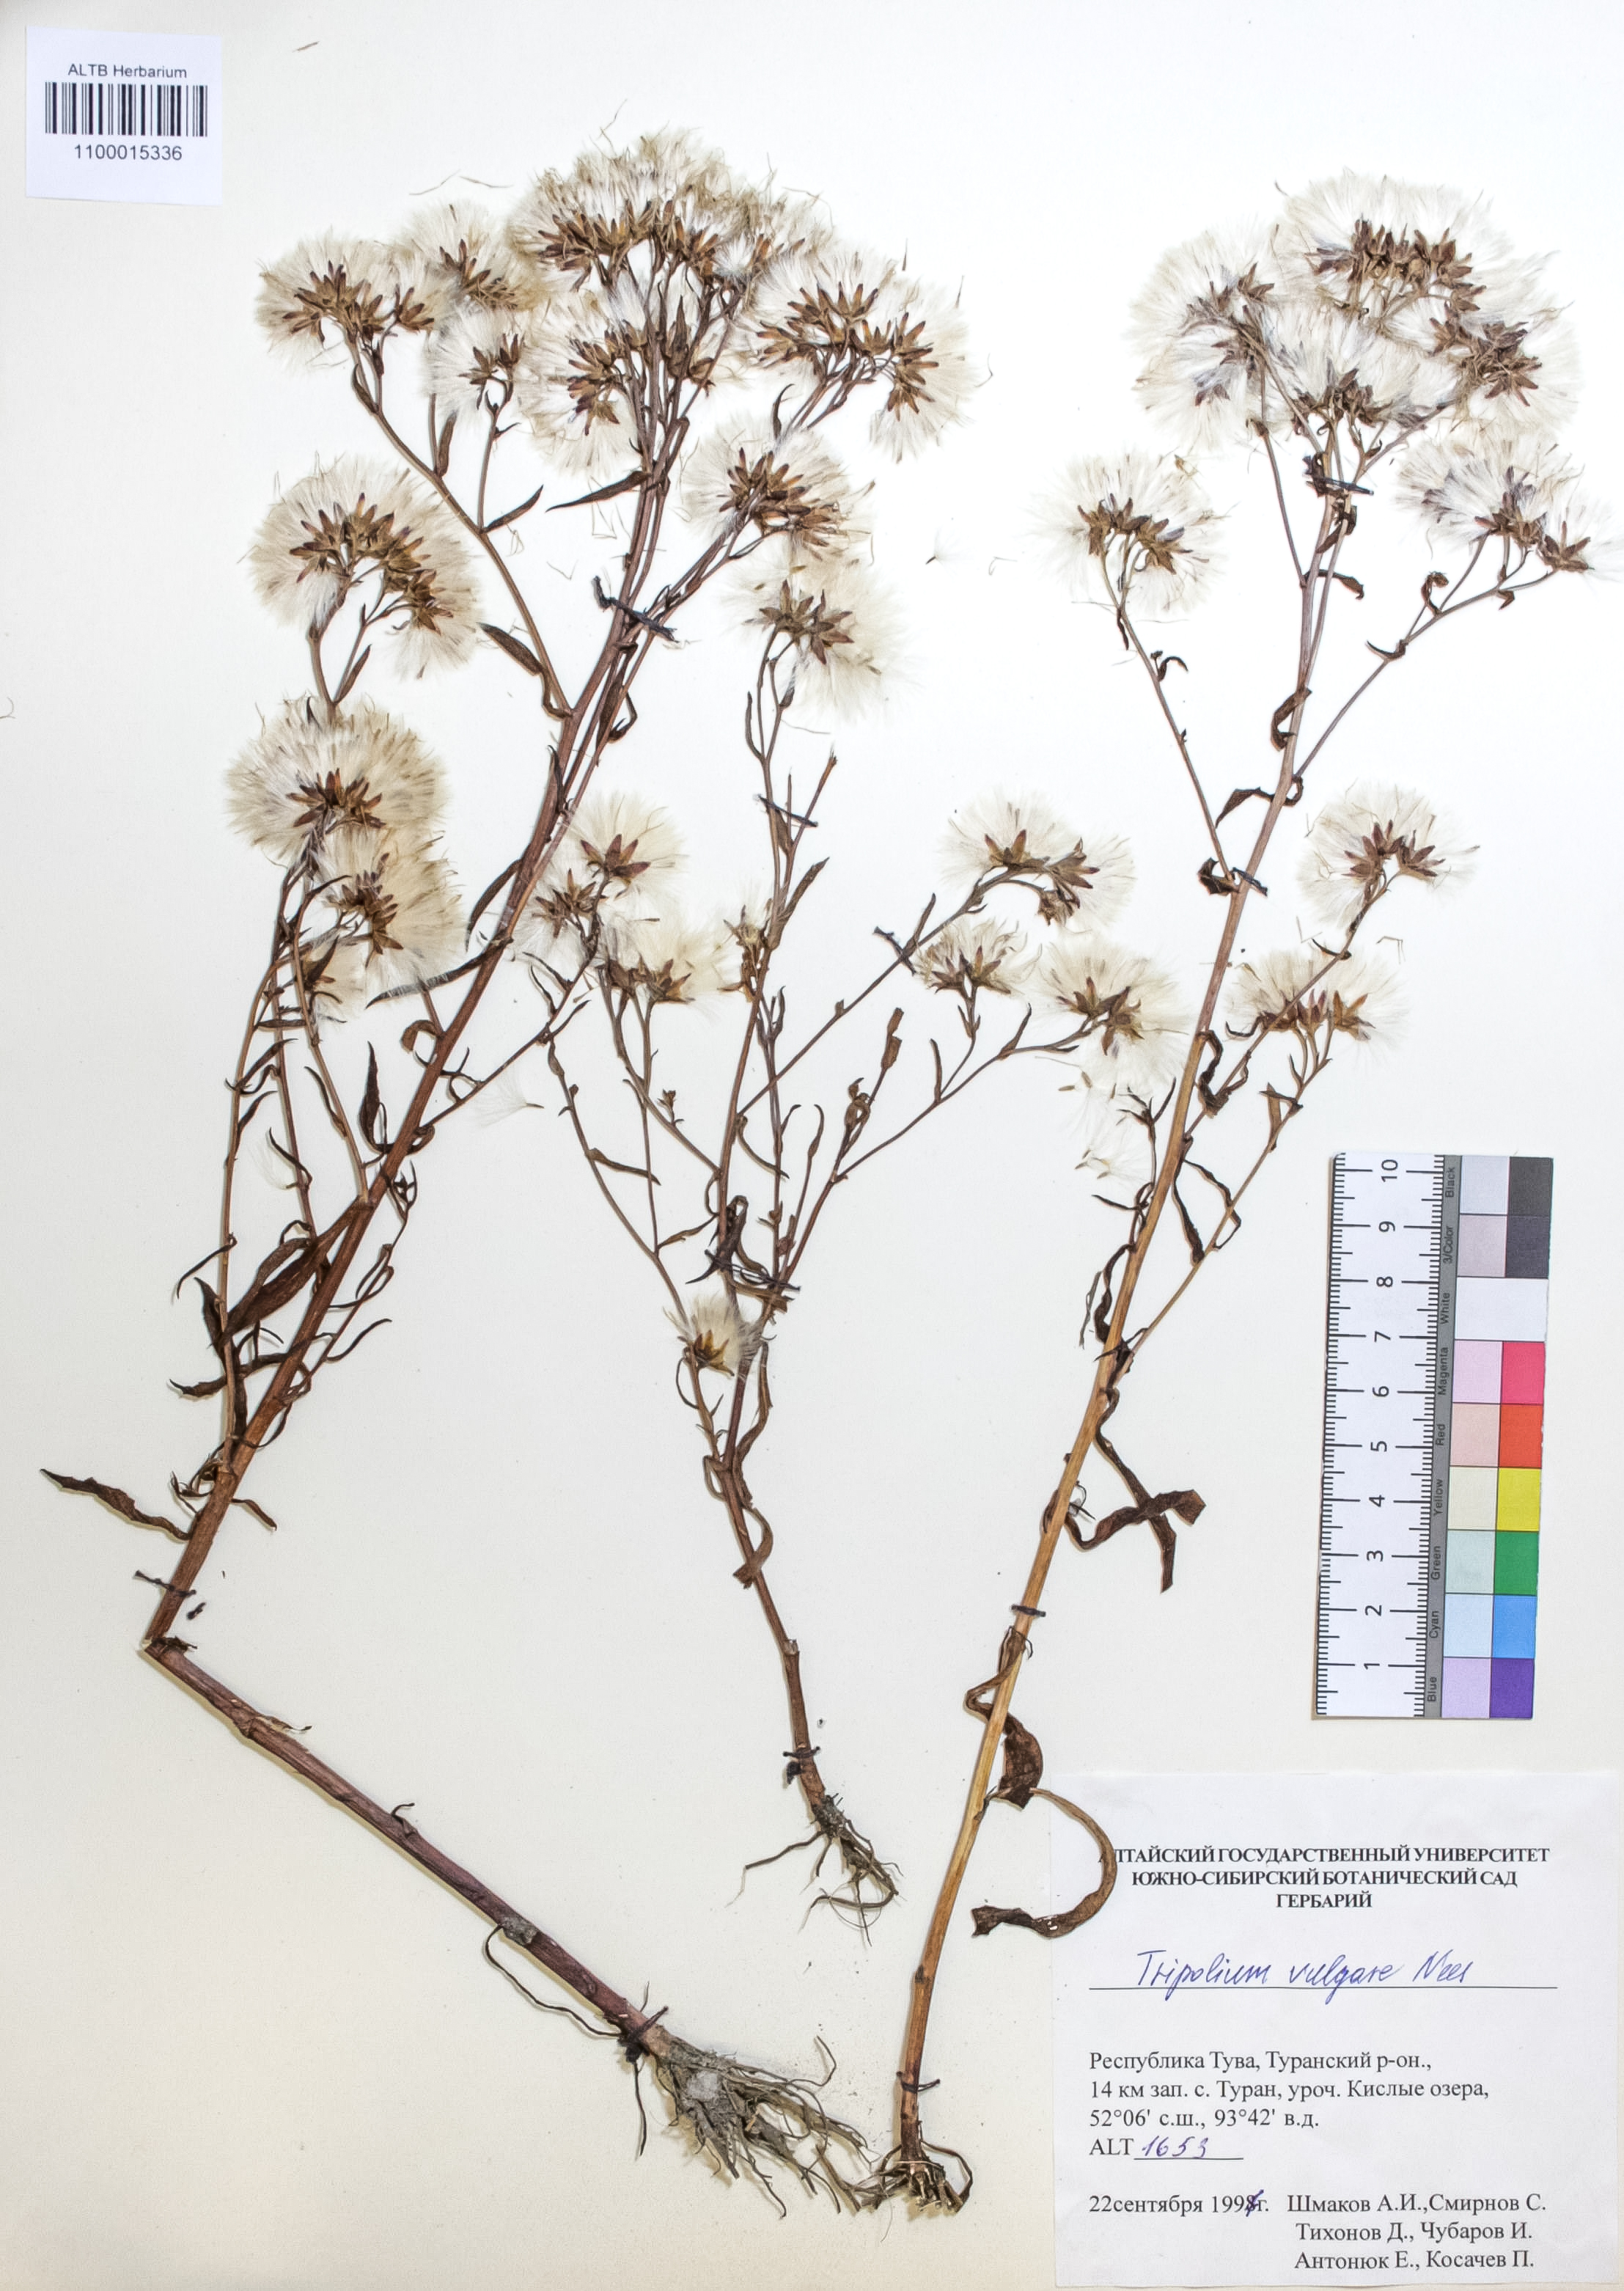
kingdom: Plantae
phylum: Tracheophyta
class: Magnoliopsida
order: Asterales
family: Asteraceae
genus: Tripolium
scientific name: Tripolium pannonicum
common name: Sea aster
